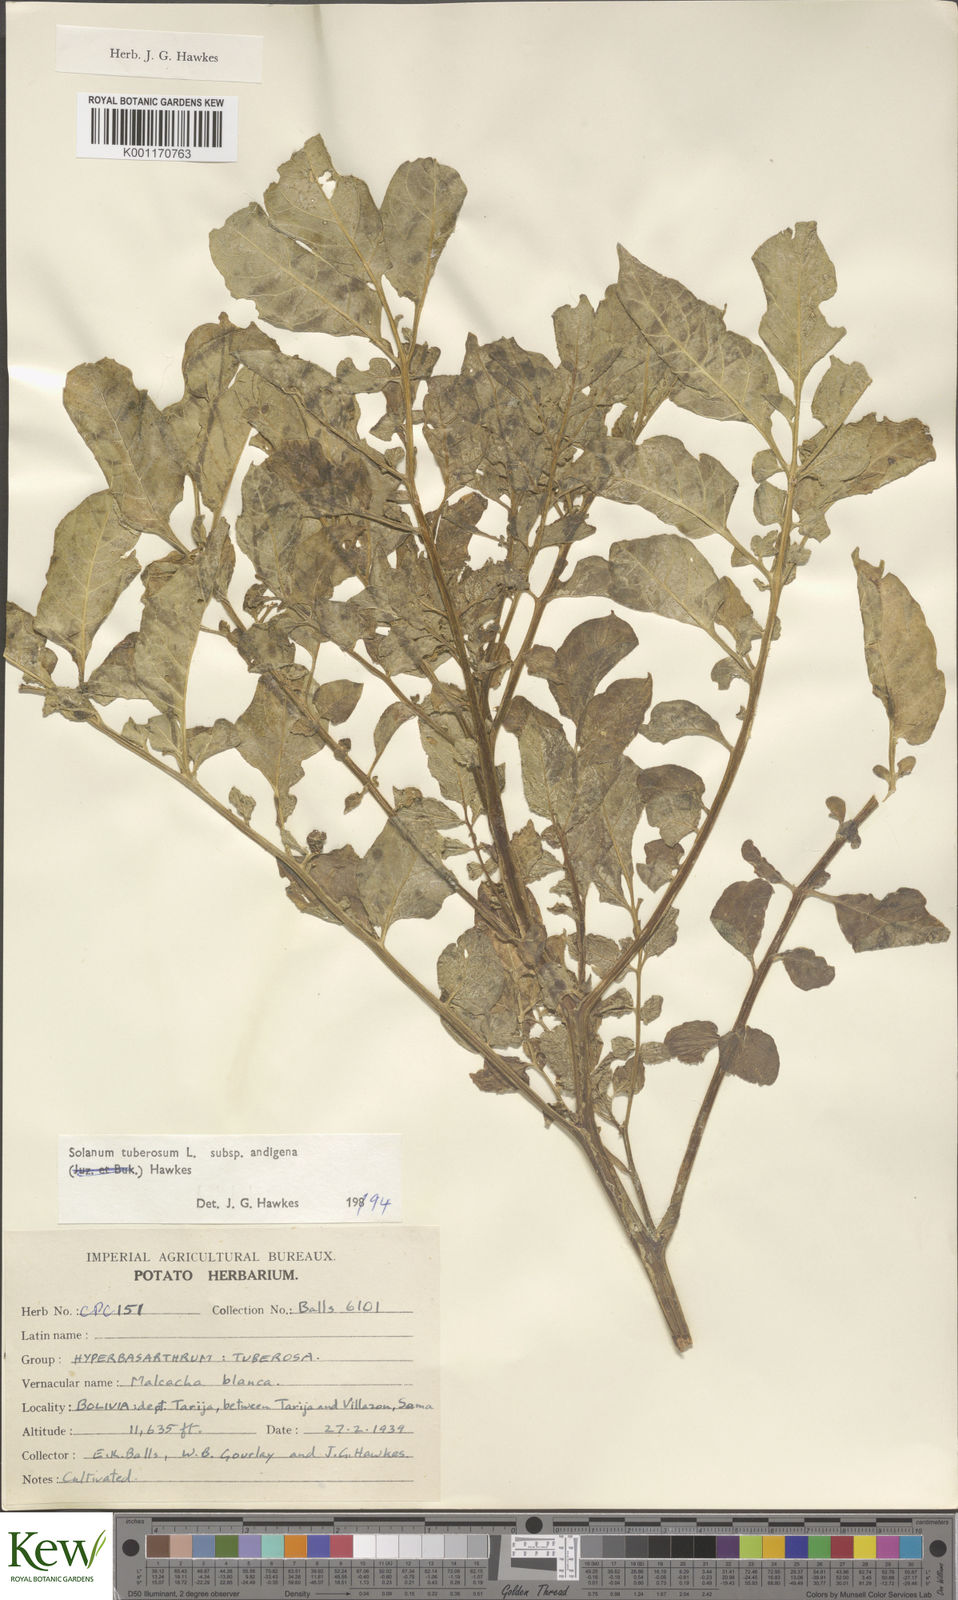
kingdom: Plantae
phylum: Tracheophyta
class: Magnoliopsida
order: Solanales
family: Solanaceae
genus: Solanum
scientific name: Solanum tuberosum
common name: Potato
